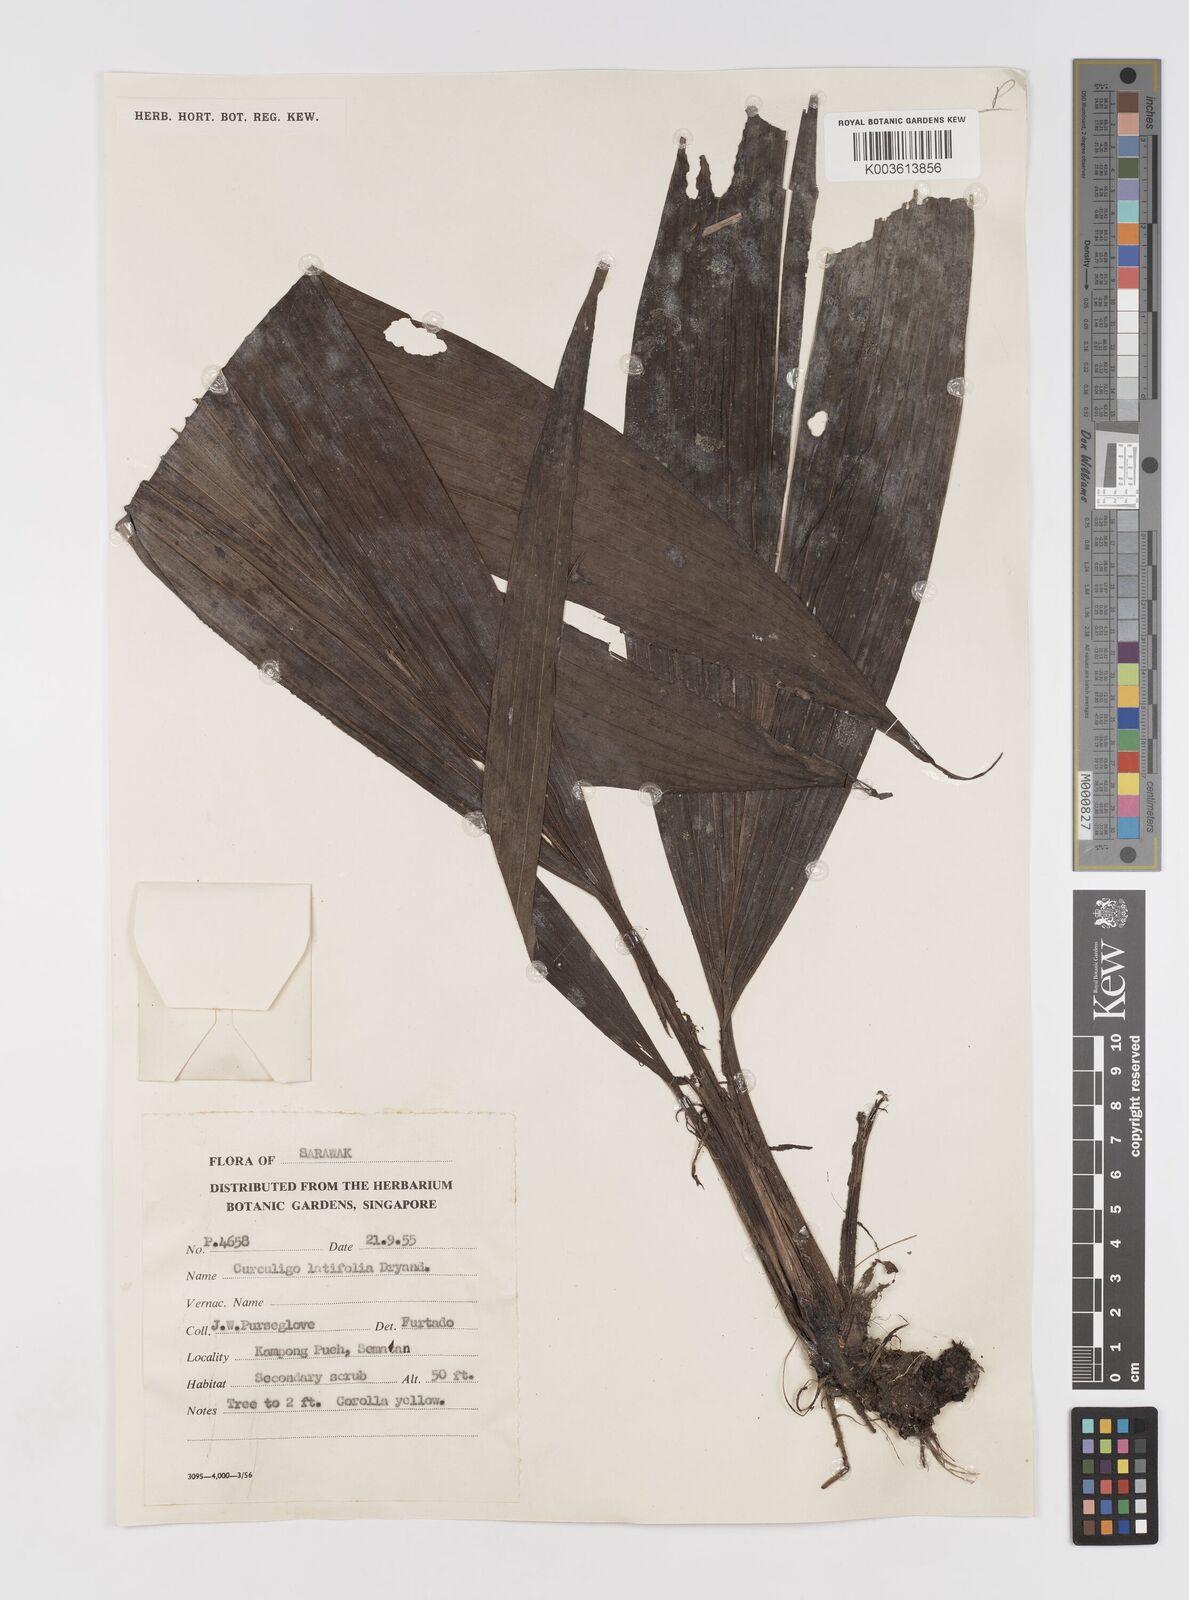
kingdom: Plantae
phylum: Tracheophyta
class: Liliopsida
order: Asparagales
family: Hypoxidaceae
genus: Curculigo
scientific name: Curculigo latifolia
